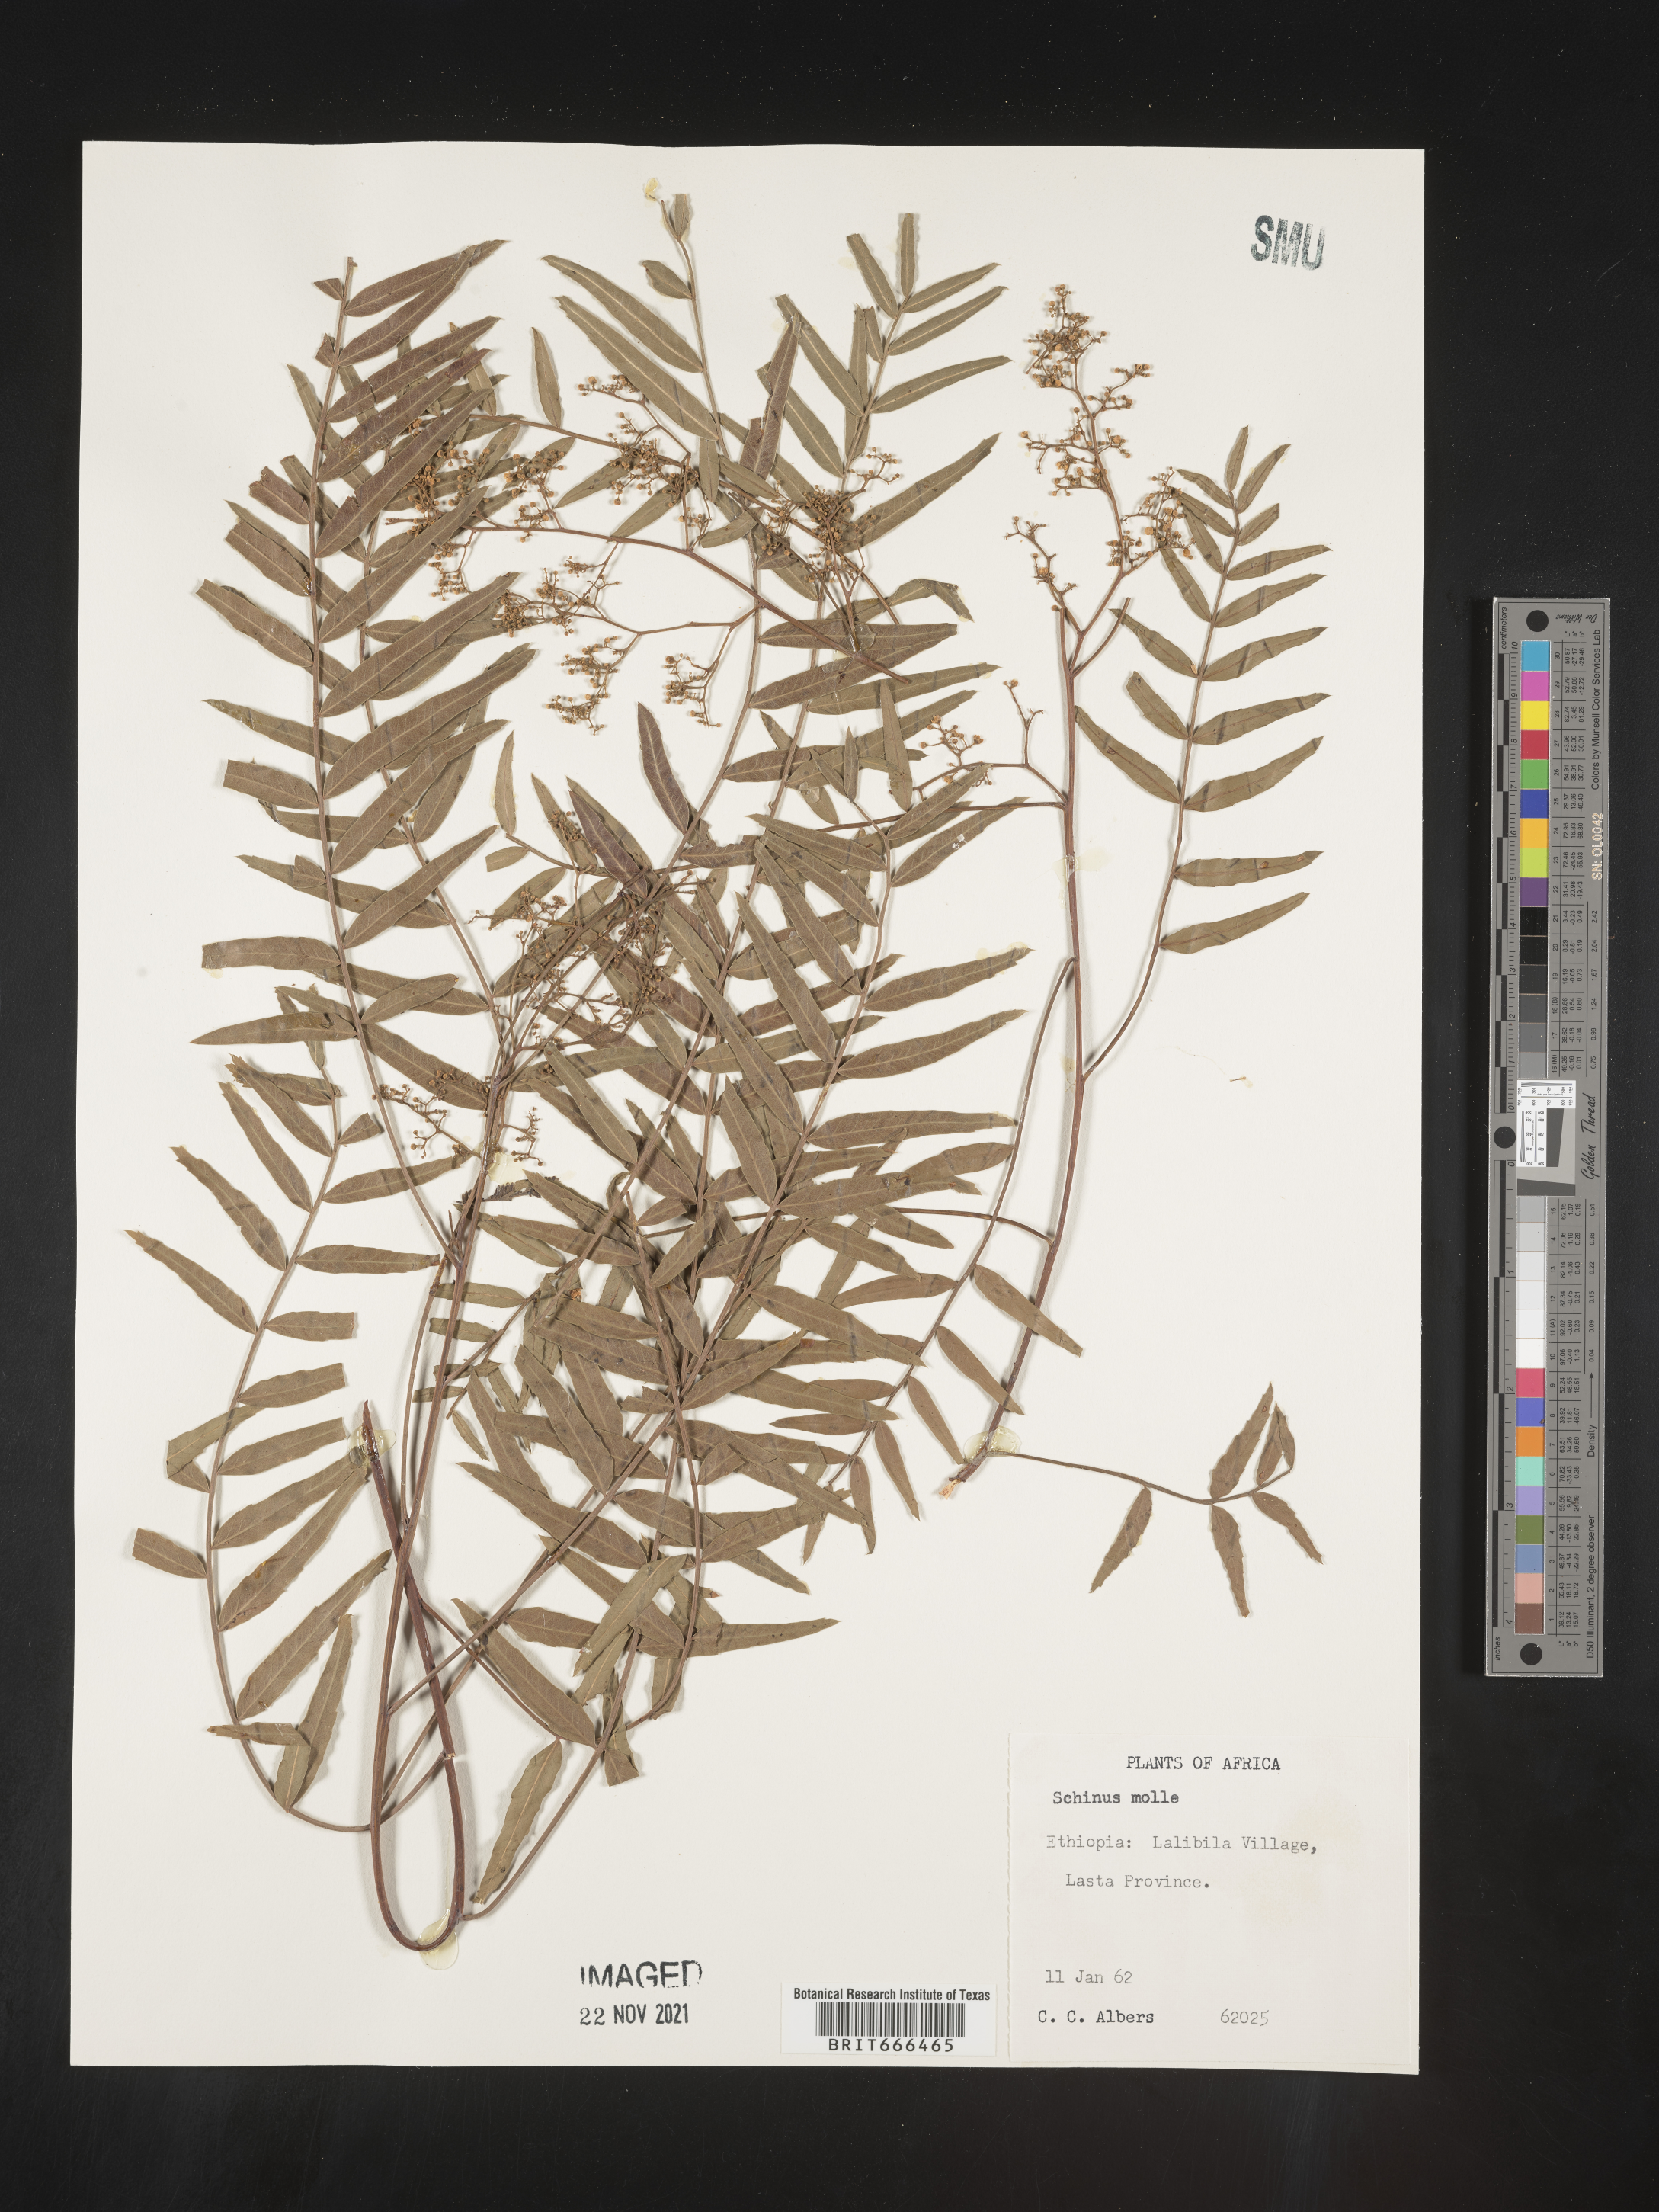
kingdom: Plantae
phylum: Tracheophyta
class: Magnoliopsida
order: Sapindales
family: Anacardiaceae
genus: Schinus
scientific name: Schinus
